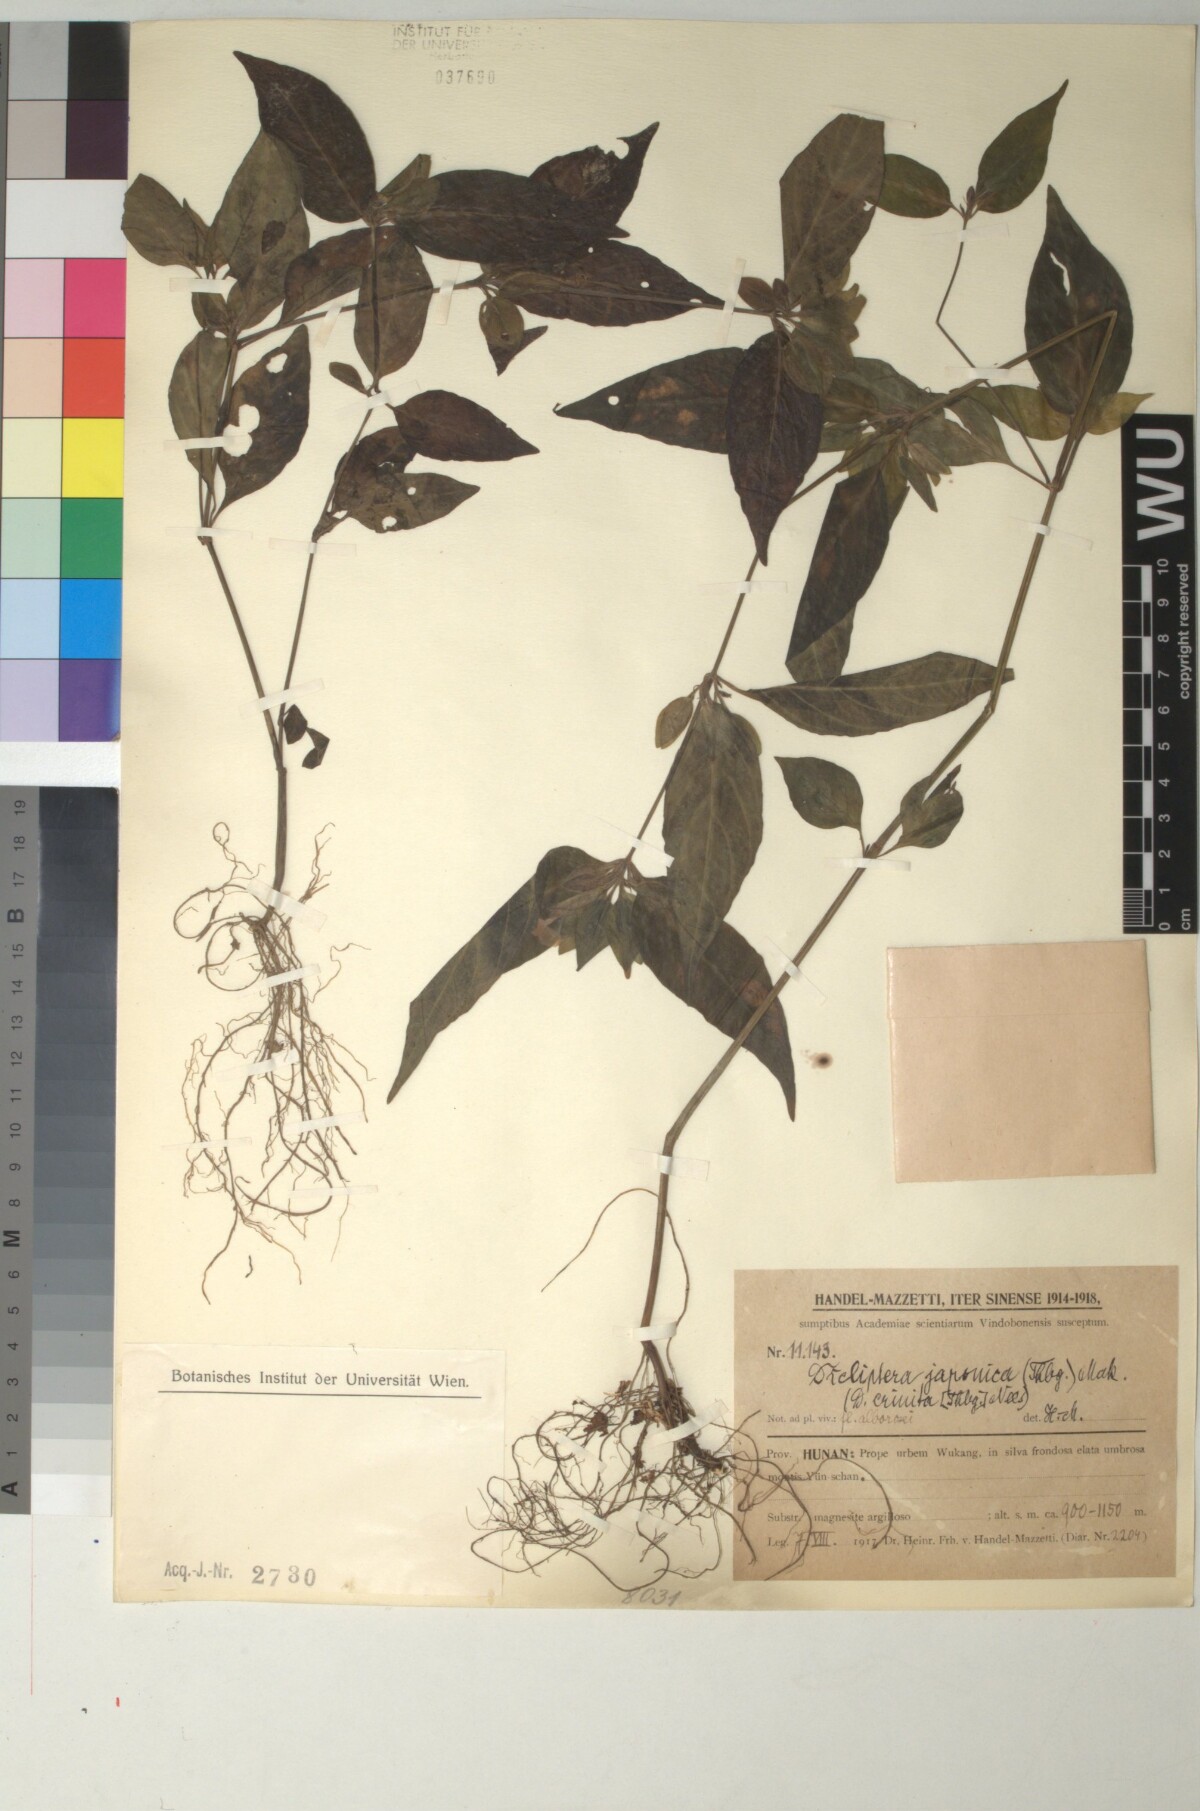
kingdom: Plantae
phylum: Tracheophyta
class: Magnoliopsida
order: Lamiales
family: Acanthaceae
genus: Dicliptera
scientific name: Dicliptera japonica
